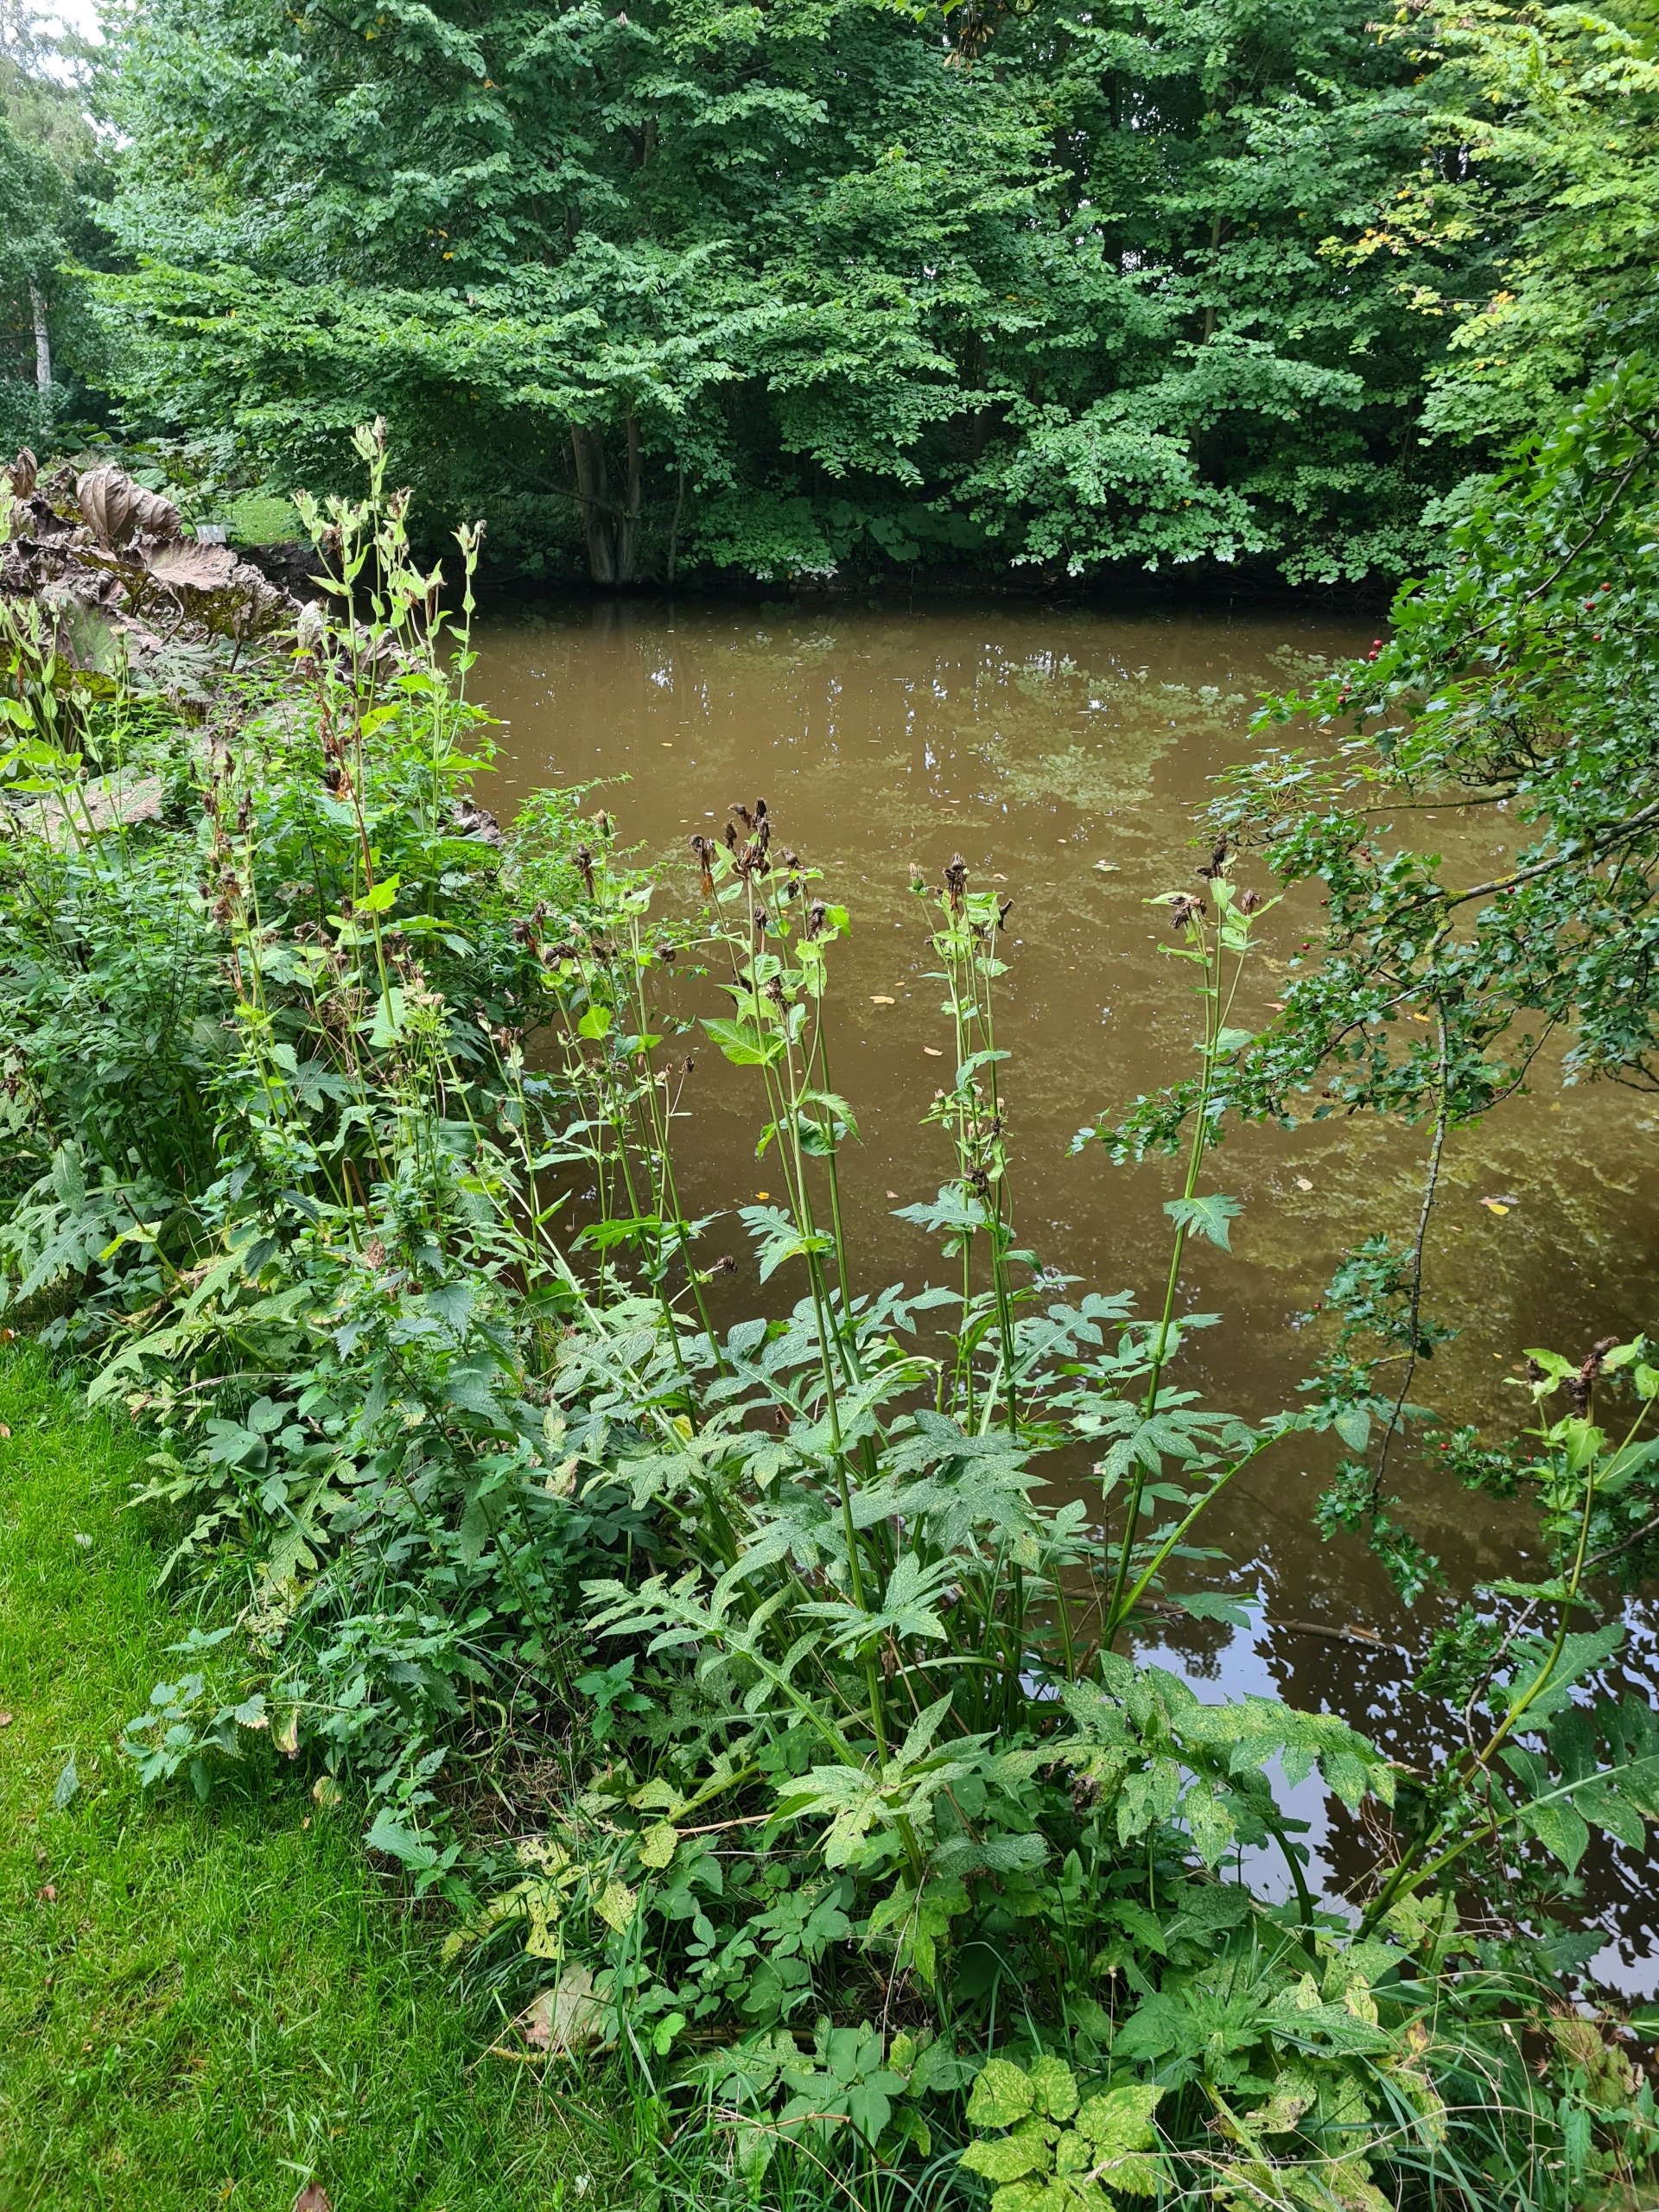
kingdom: Plantae
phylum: Tracheophyta
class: Magnoliopsida
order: Asterales
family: Asteraceae
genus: Cirsium
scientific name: Cirsium oleraceum
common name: Kål-tidsel
